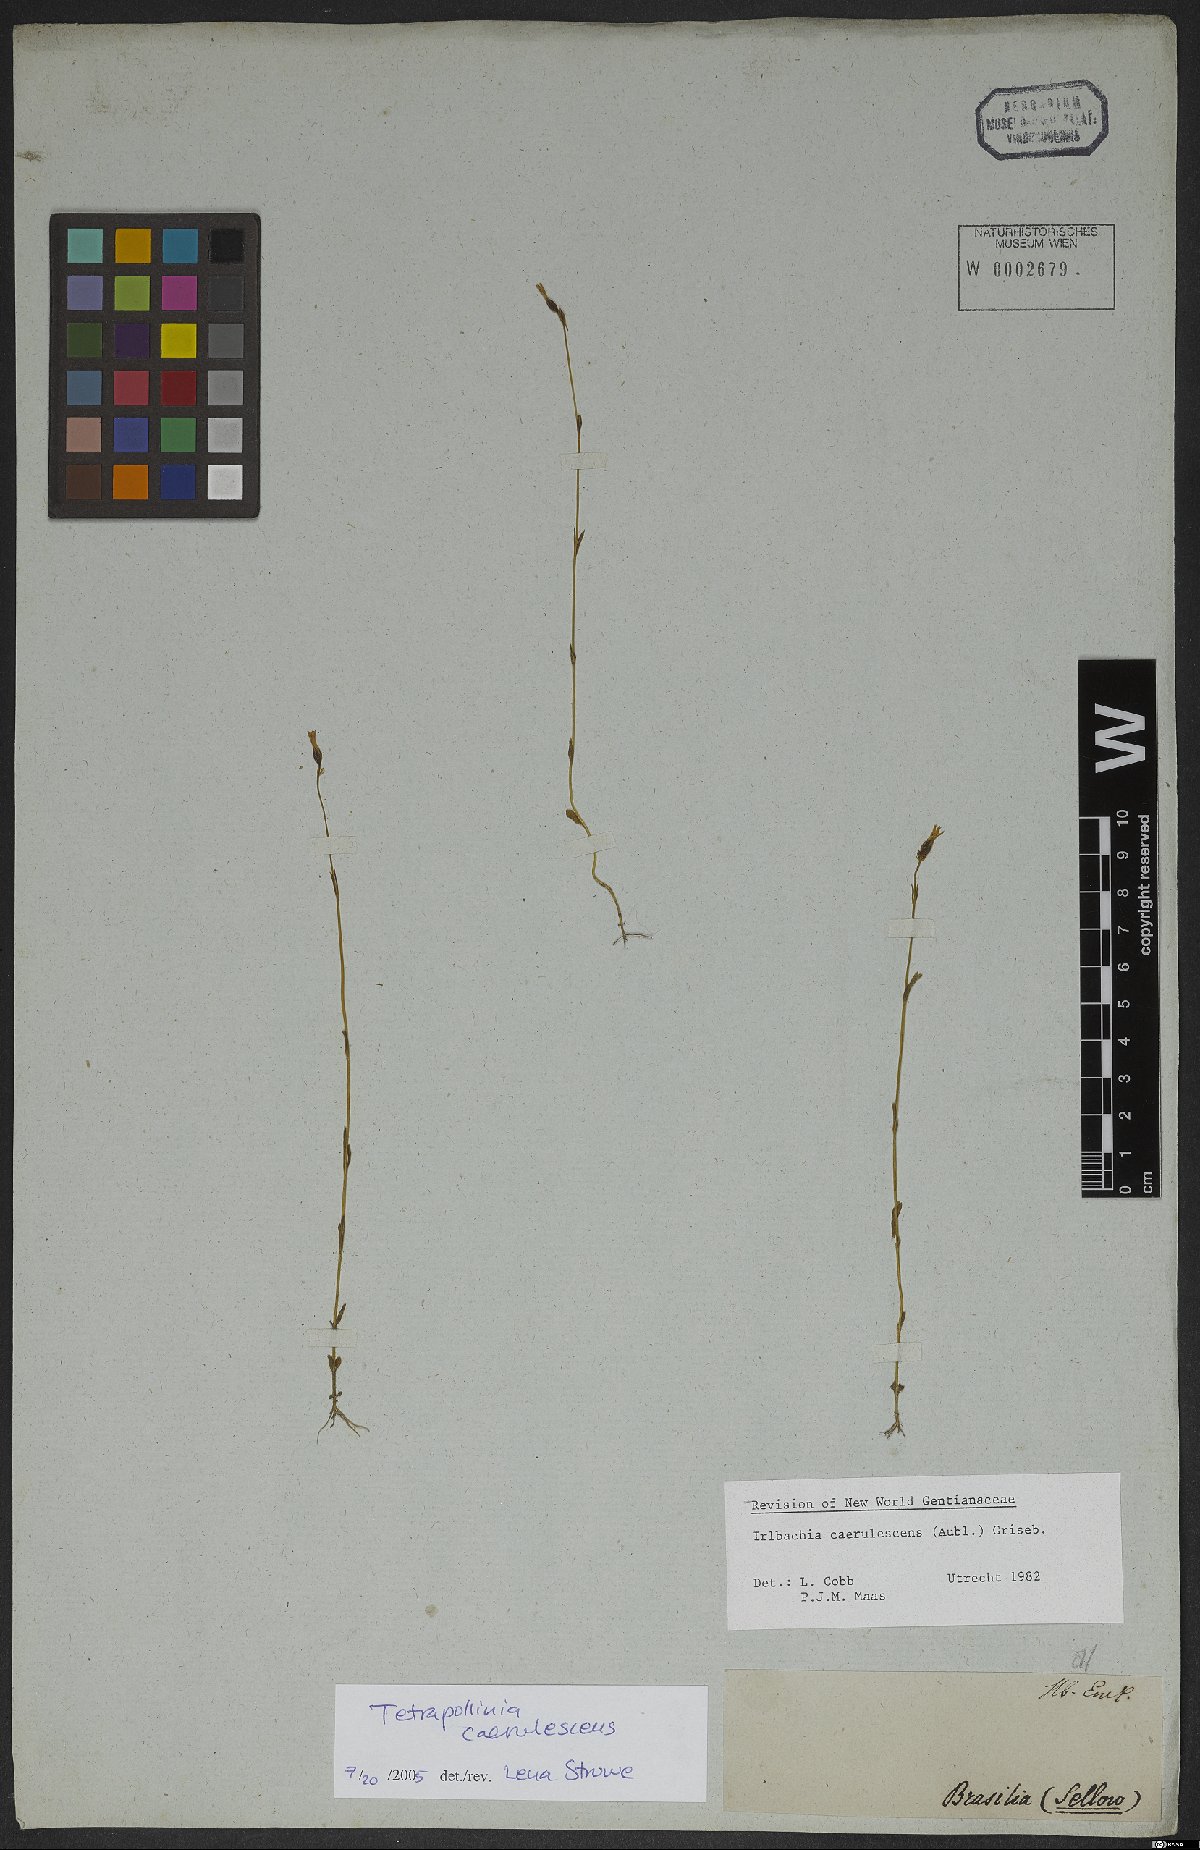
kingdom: Plantae
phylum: Tracheophyta
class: Magnoliopsida
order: Gentianales
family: Gentianaceae
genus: Tetrapollinia
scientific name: Tetrapollinia caerulescens
